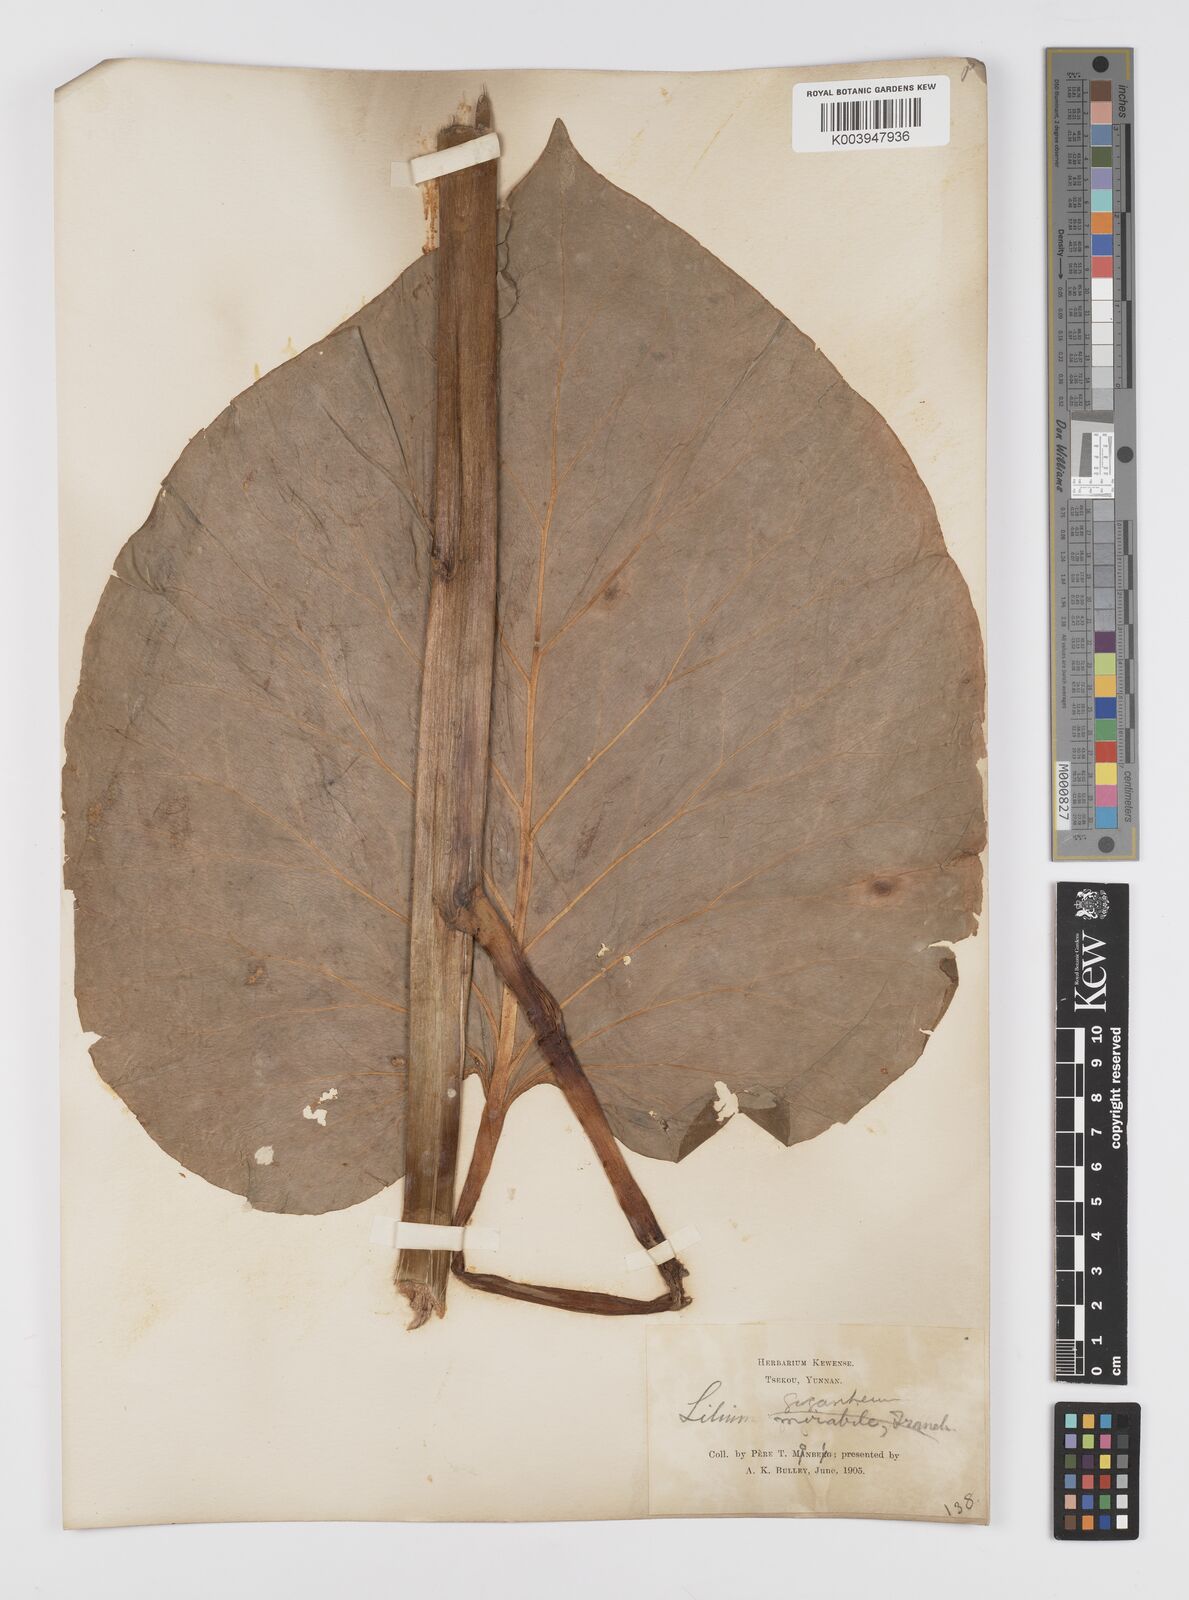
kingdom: Plantae
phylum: Tracheophyta
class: Liliopsida
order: Liliales
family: Liliaceae
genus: Cardiocrinum
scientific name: Cardiocrinum giganteum
